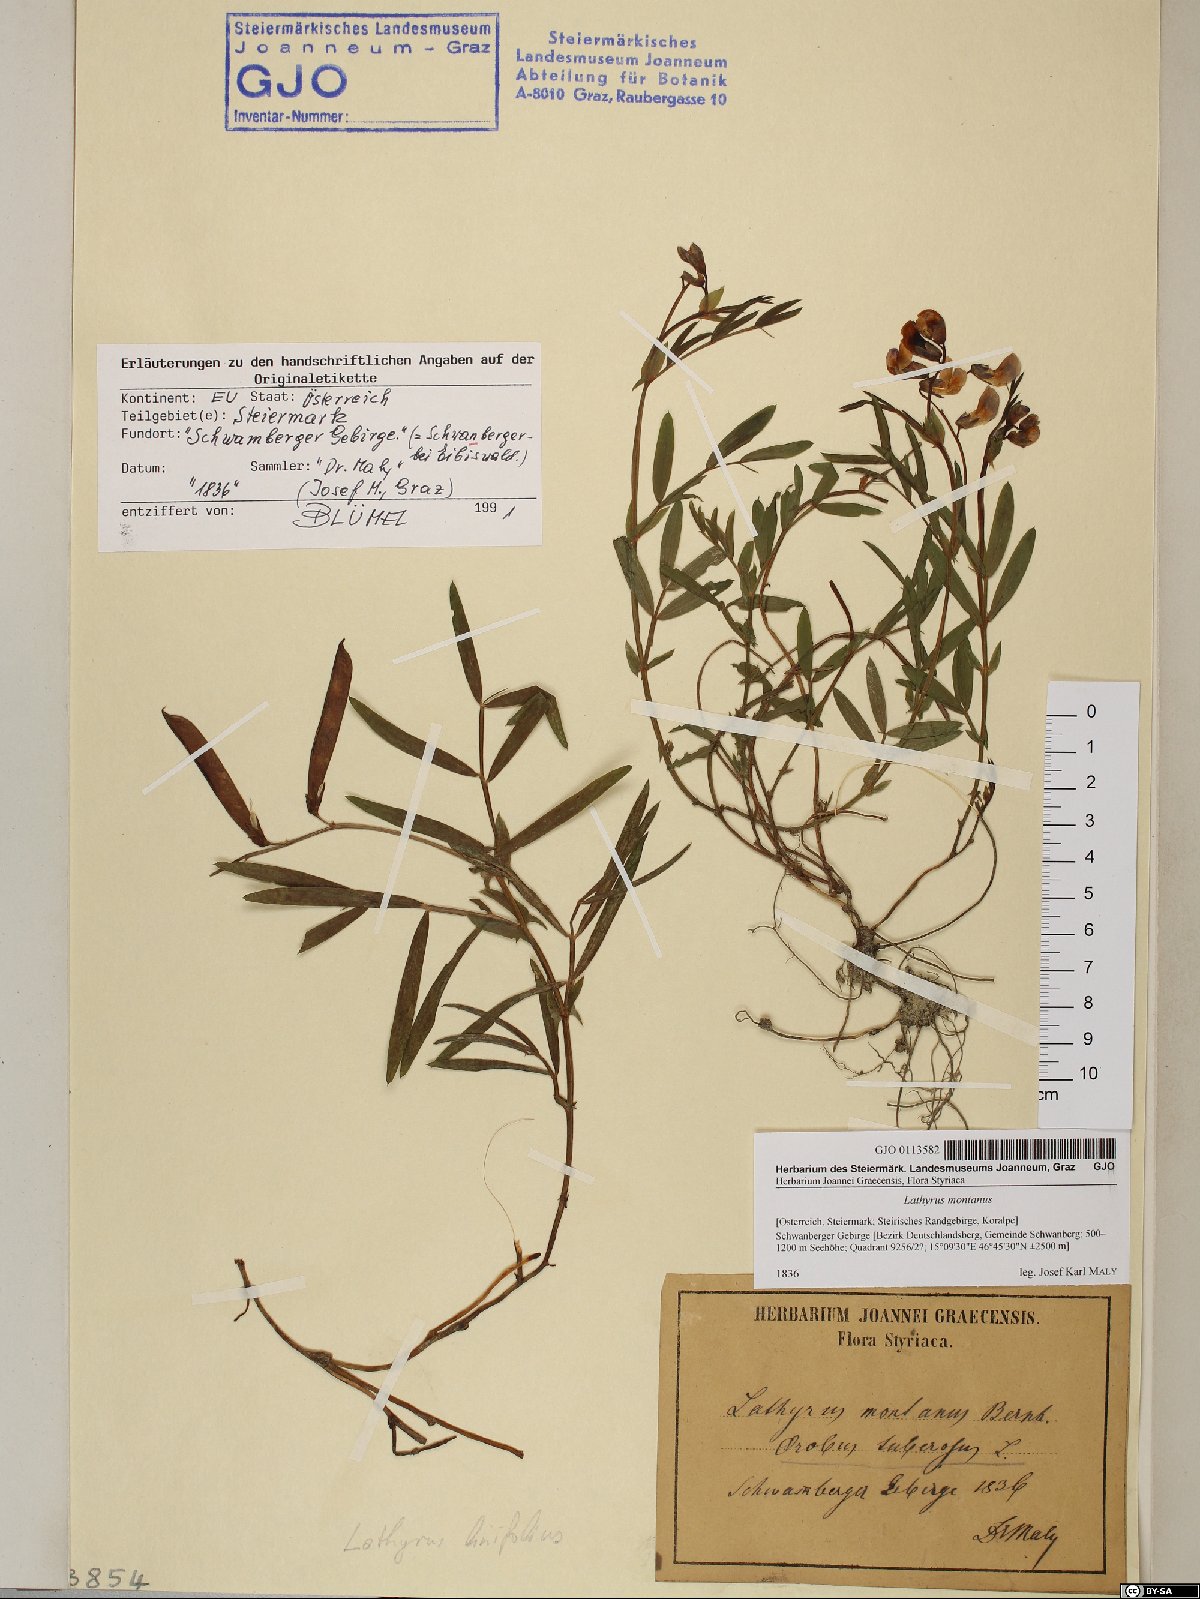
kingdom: Plantae
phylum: Tracheophyta
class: Magnoliopsida
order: Fabales
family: Fabaceae
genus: Lathyrus
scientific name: Lathyrus linifolius
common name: Bitter-vetch
